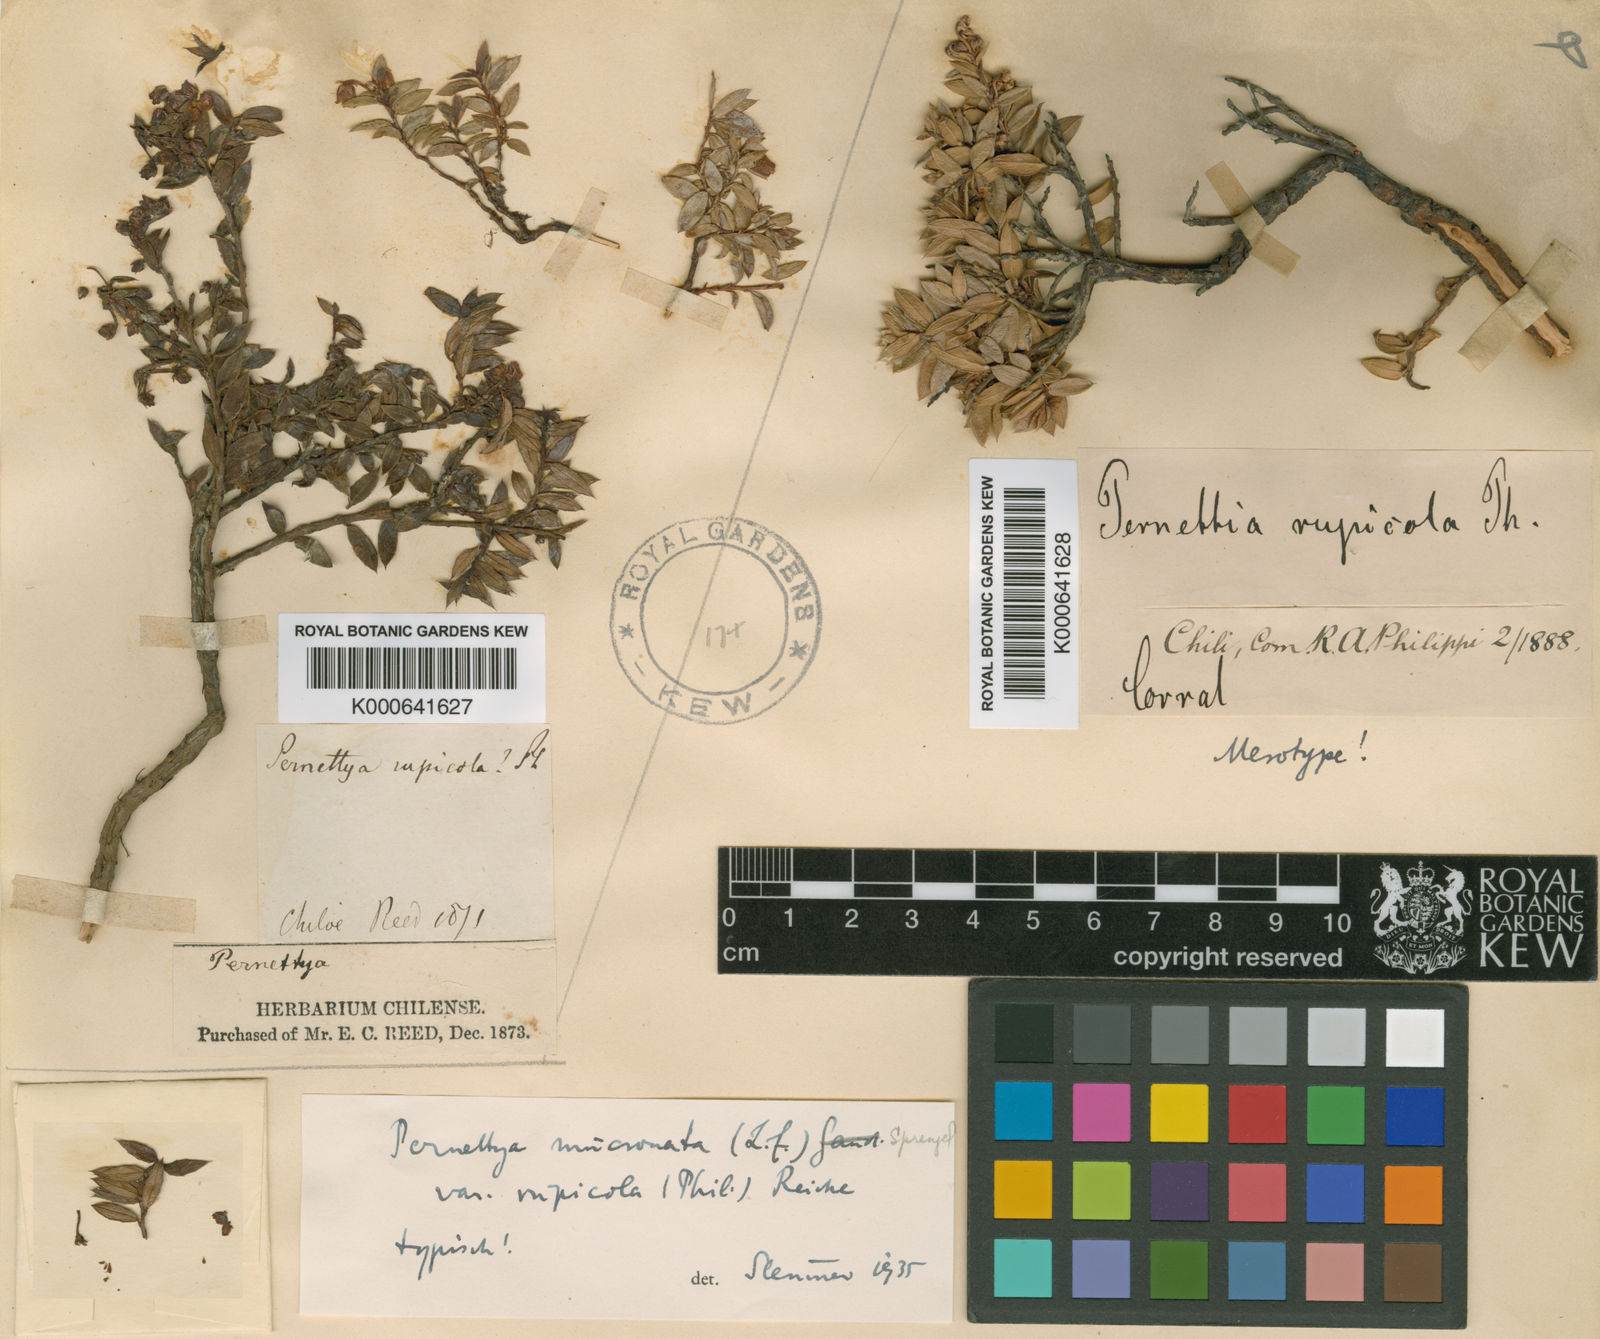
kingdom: Plantae
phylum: Tracheophyta
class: Magnoliopsida
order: Ericales
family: Ericaceae
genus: Gaultheria
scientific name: Gaultheria mucronata
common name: Prickly heath
